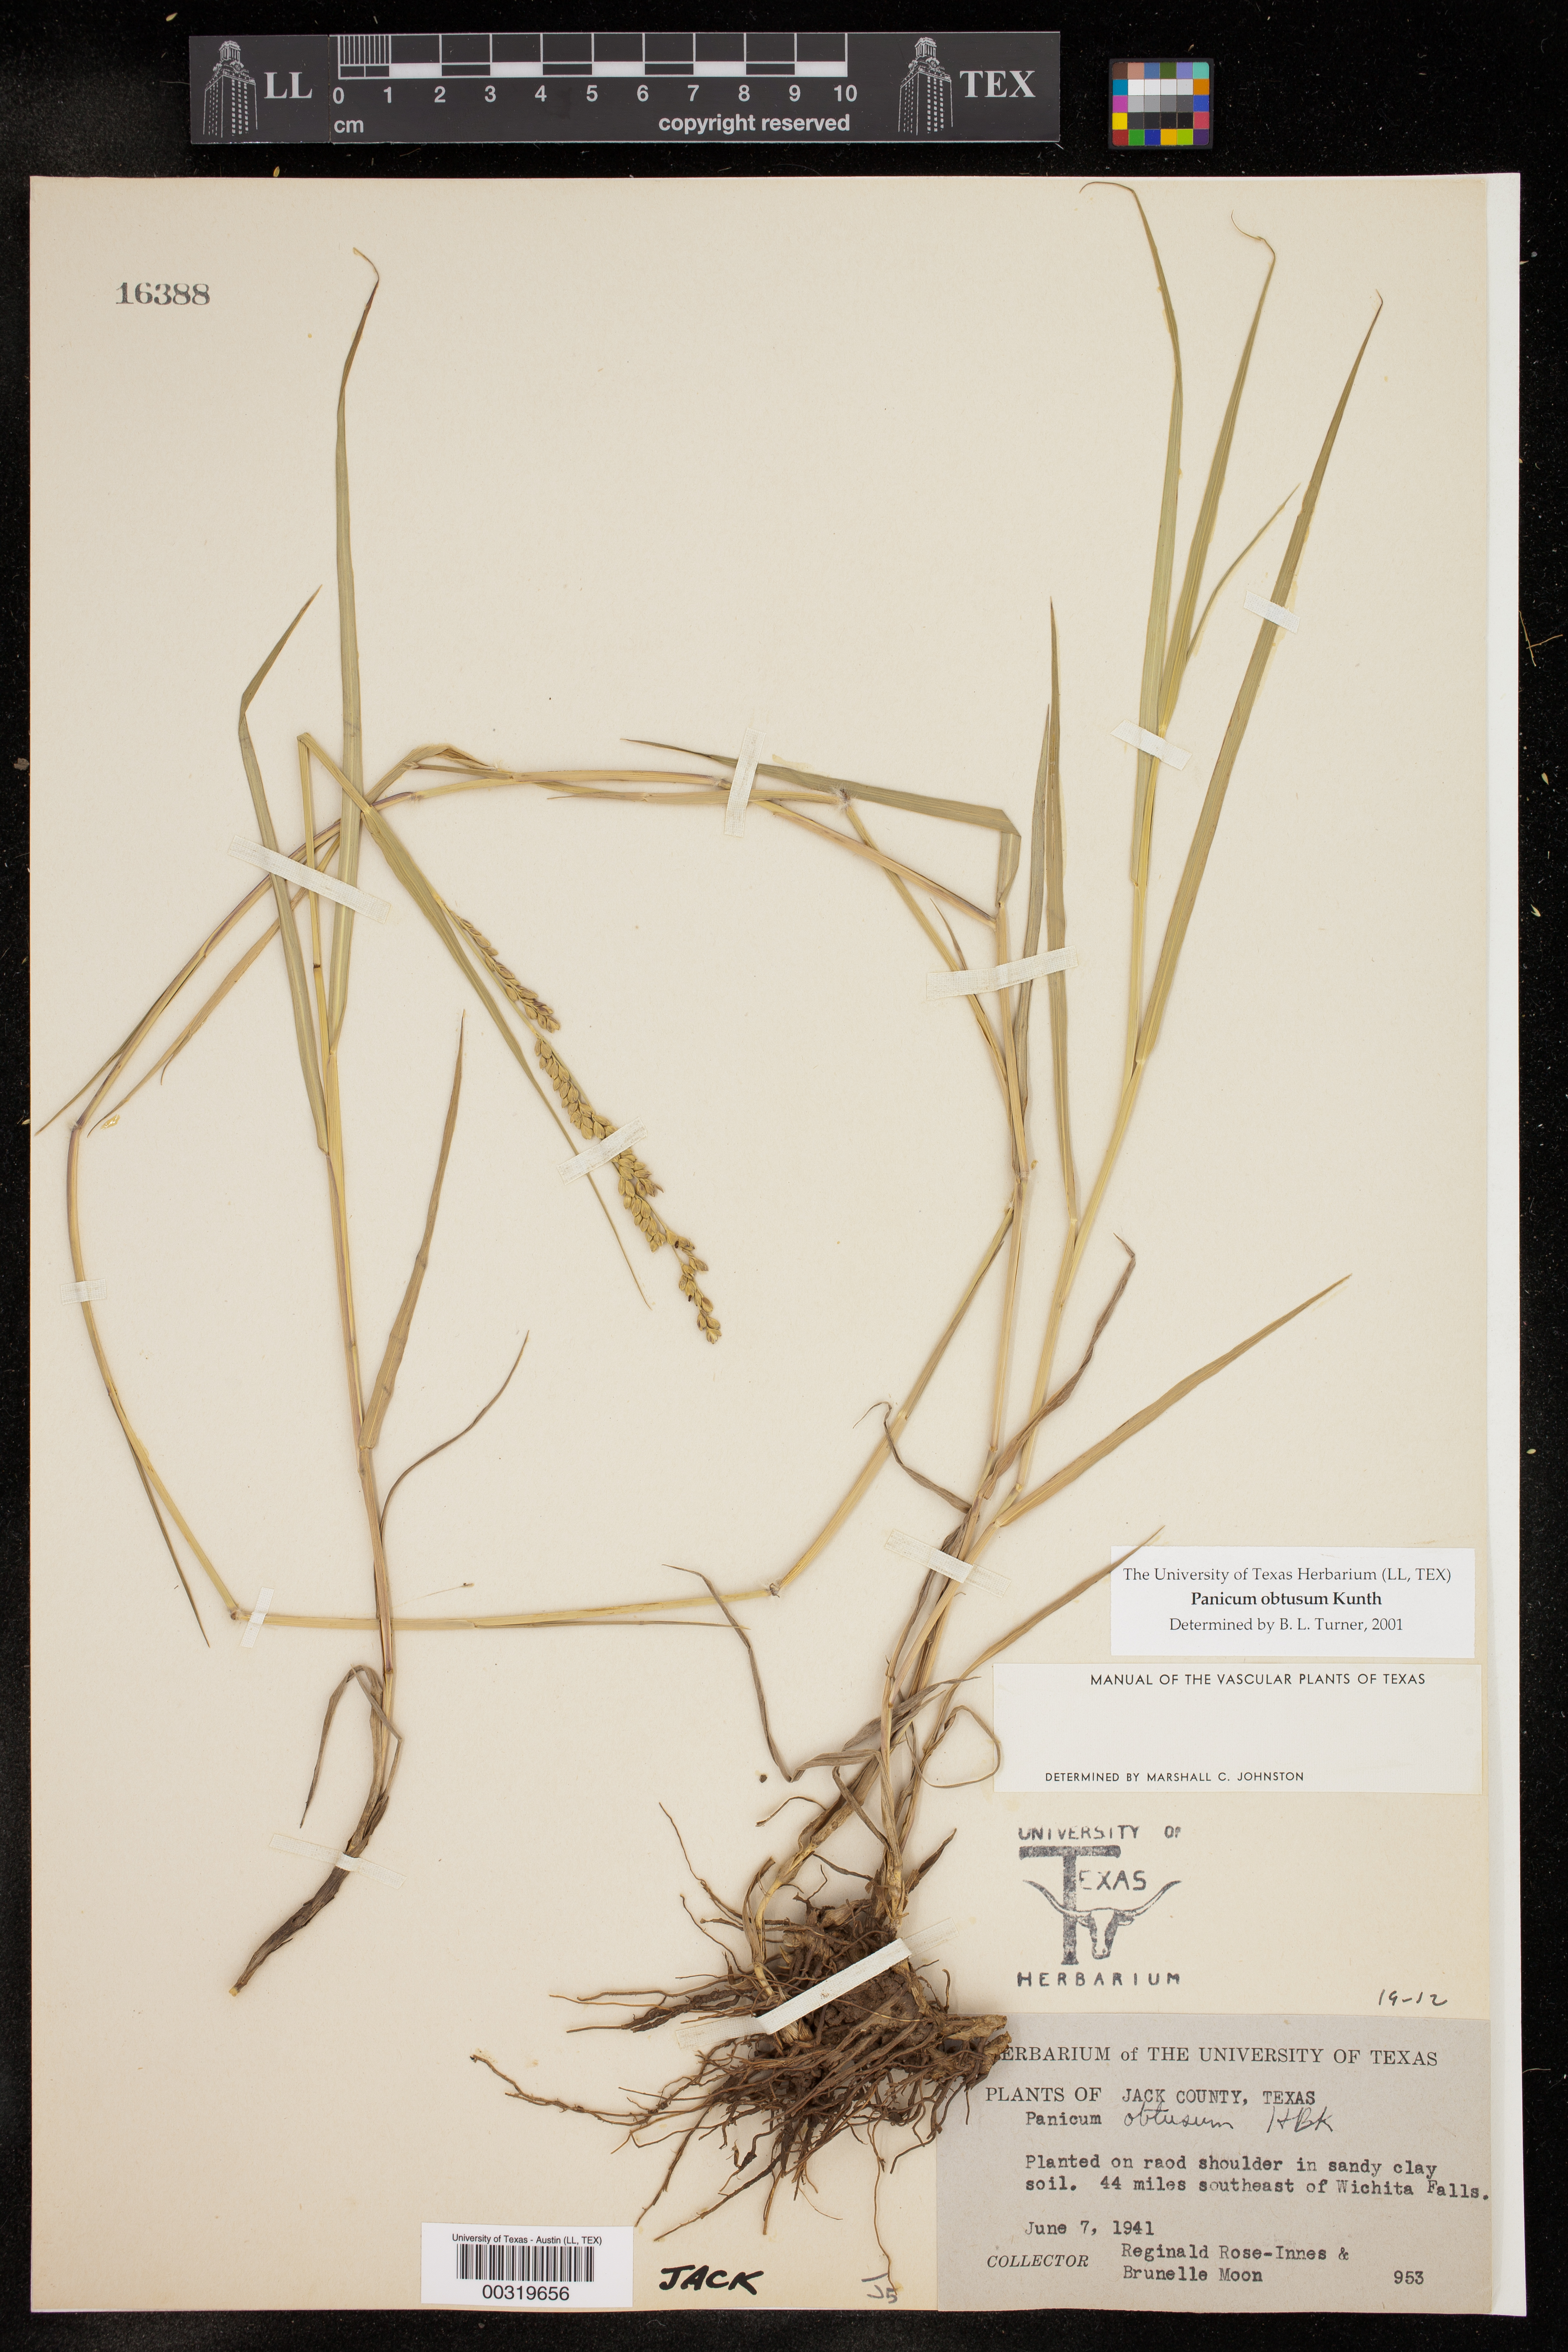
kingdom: Plantae
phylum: Tracheophyta
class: Liliopsida
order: Poales
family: Poaceae
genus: Hopia
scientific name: Hopia obtusa
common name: Vine-mesquite
